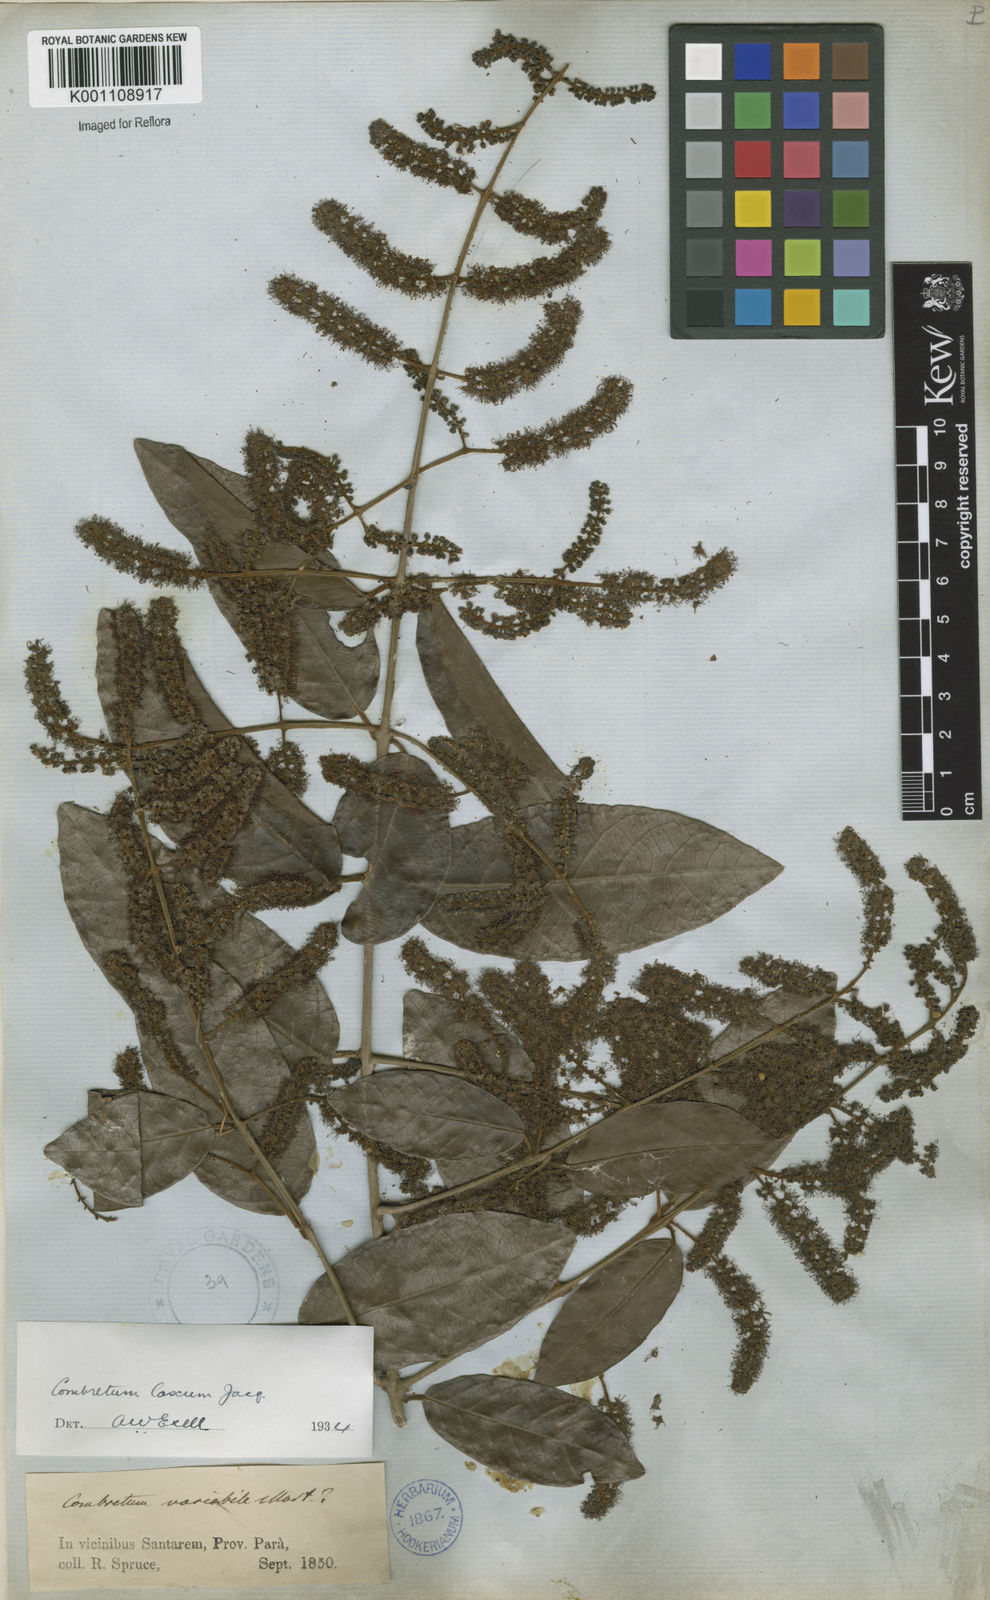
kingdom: Plantae
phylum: Tracheophyta
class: Magnoliopsida
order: Myrtales
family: Combretaceae
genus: Combretum
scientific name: Combretum laxum
